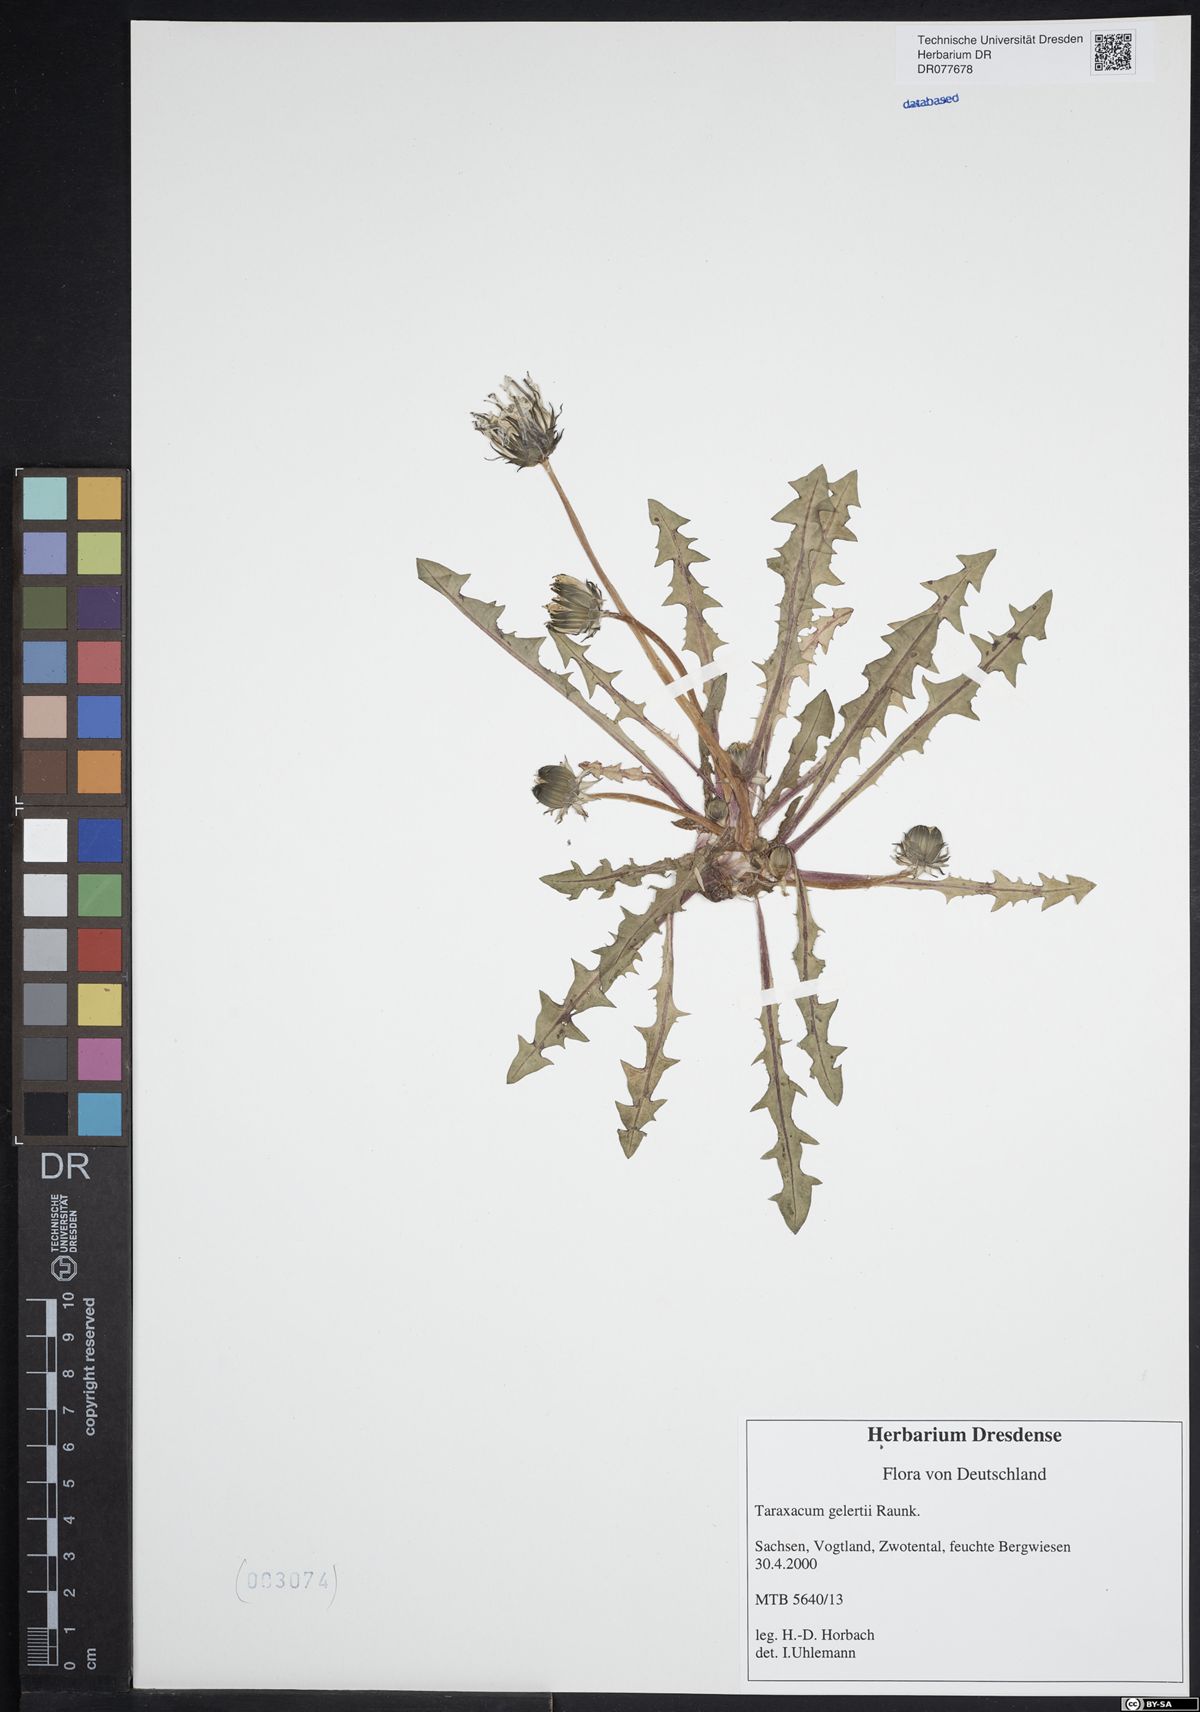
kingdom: Plantae
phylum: Tracheophyta
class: Magnoliopsida
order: Asterales
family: Asteraceae
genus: Taraxacum
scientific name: Taraxacum gelertii
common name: Gelert's dandelion
